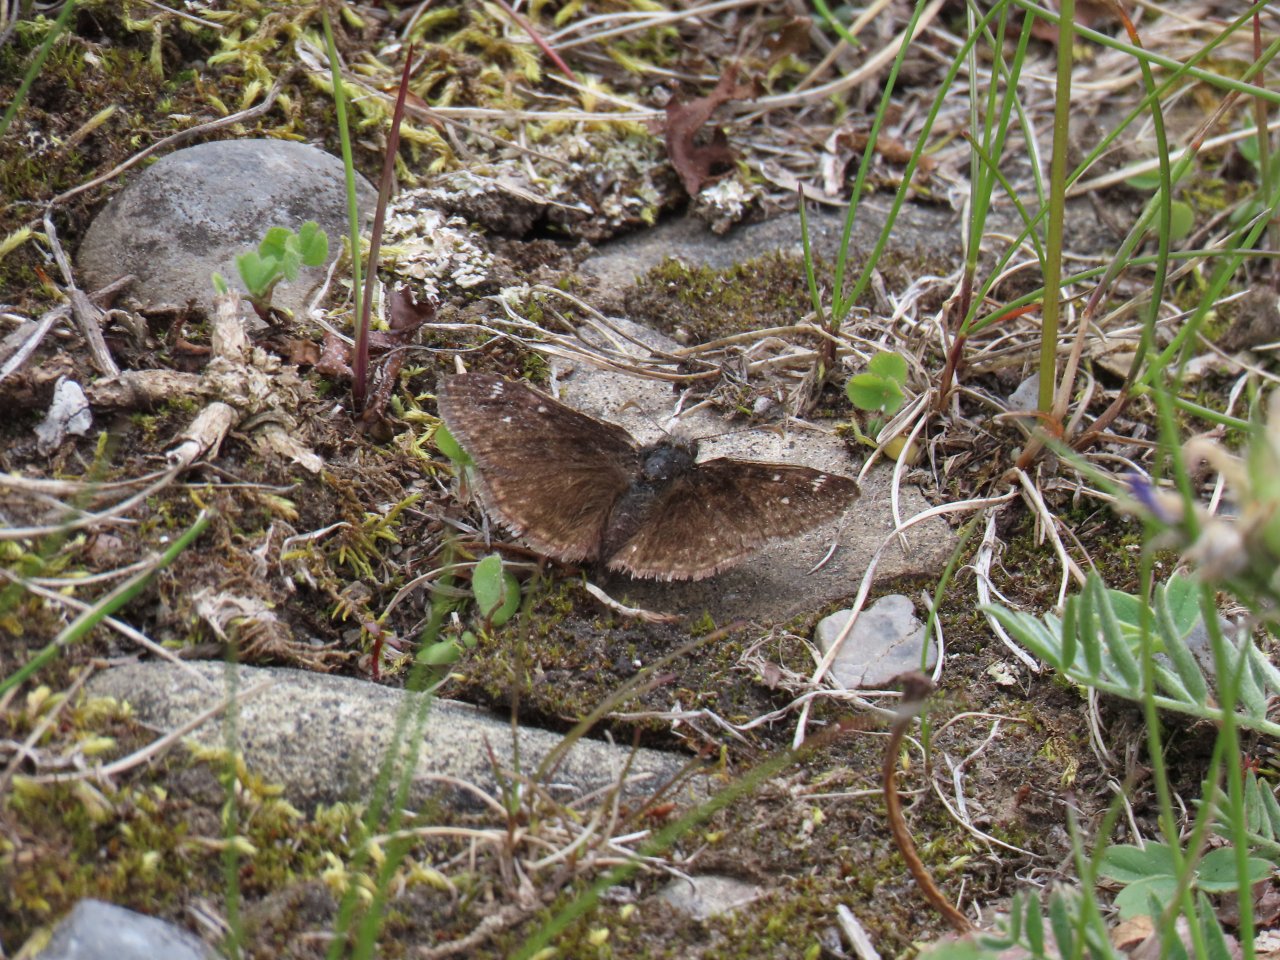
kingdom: Animalia
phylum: Arthropoda
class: Insecta
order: Lepidoptera
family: Hesperiidae
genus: Gesta
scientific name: Gesta
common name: Persius Duskywing
